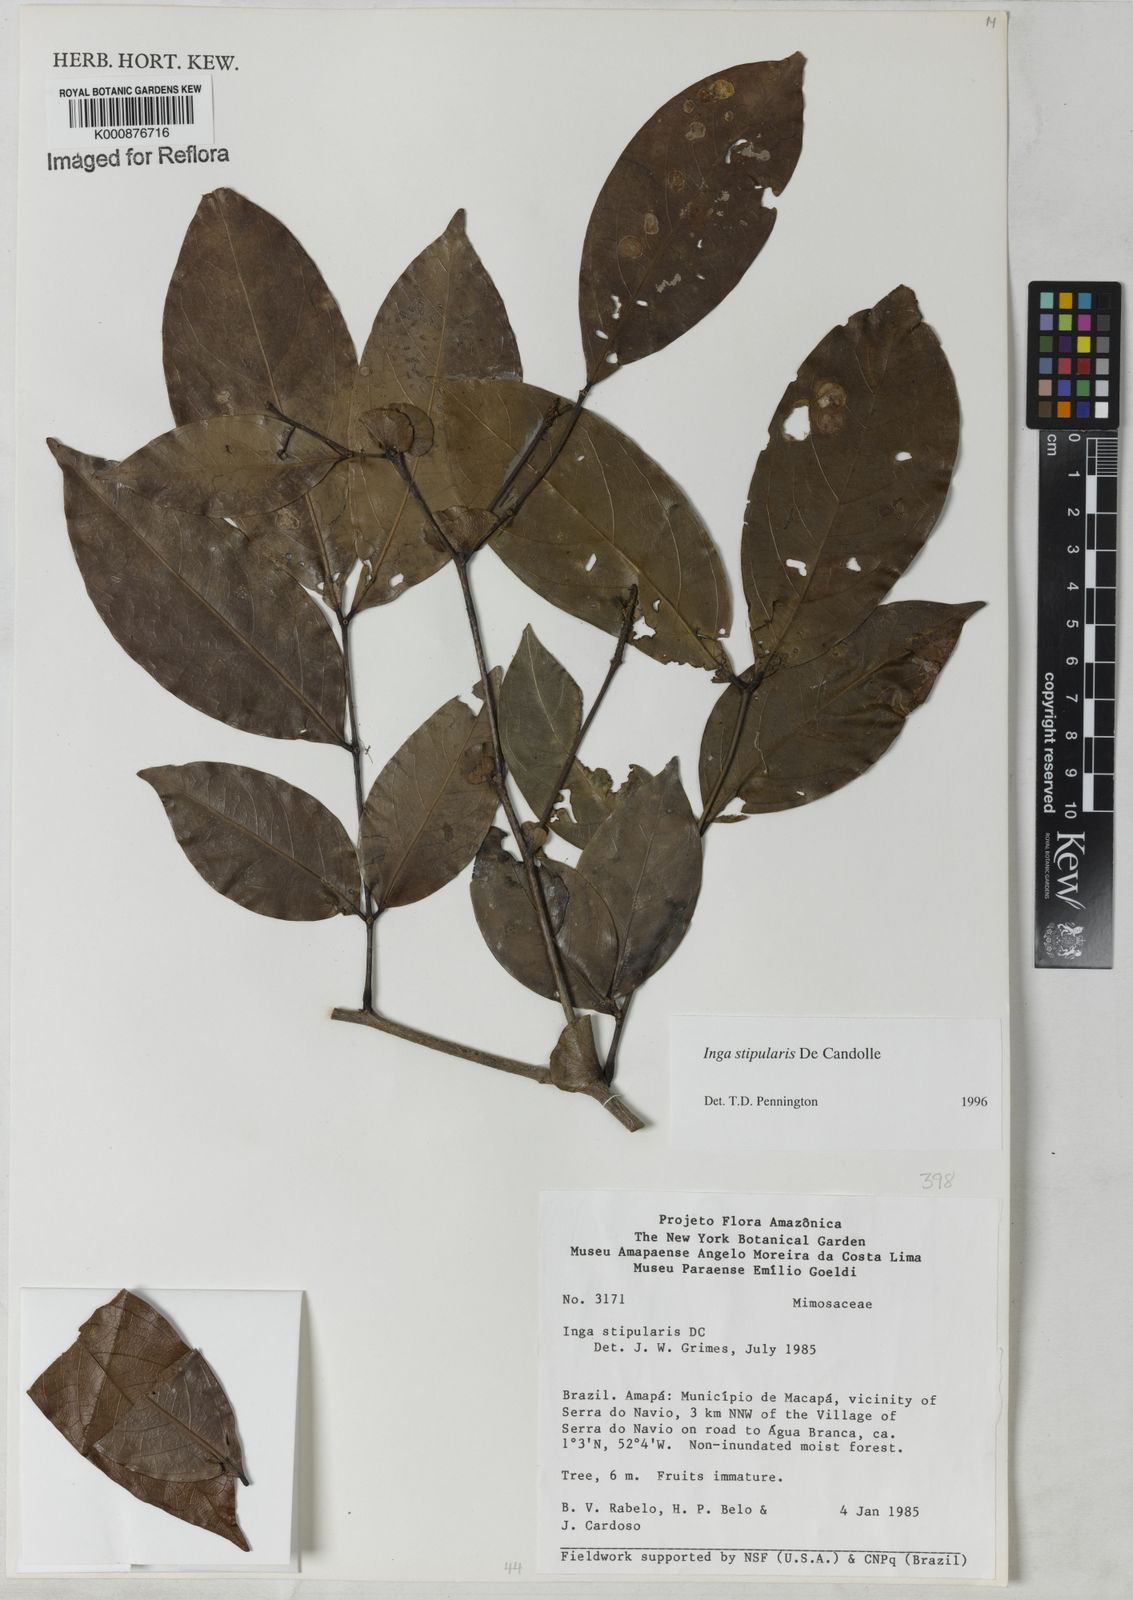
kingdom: Plantae
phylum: Tracheophyta
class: Magnoliopsida
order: Fabales
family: Fabaceae
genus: Inga
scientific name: Inga stipularis
